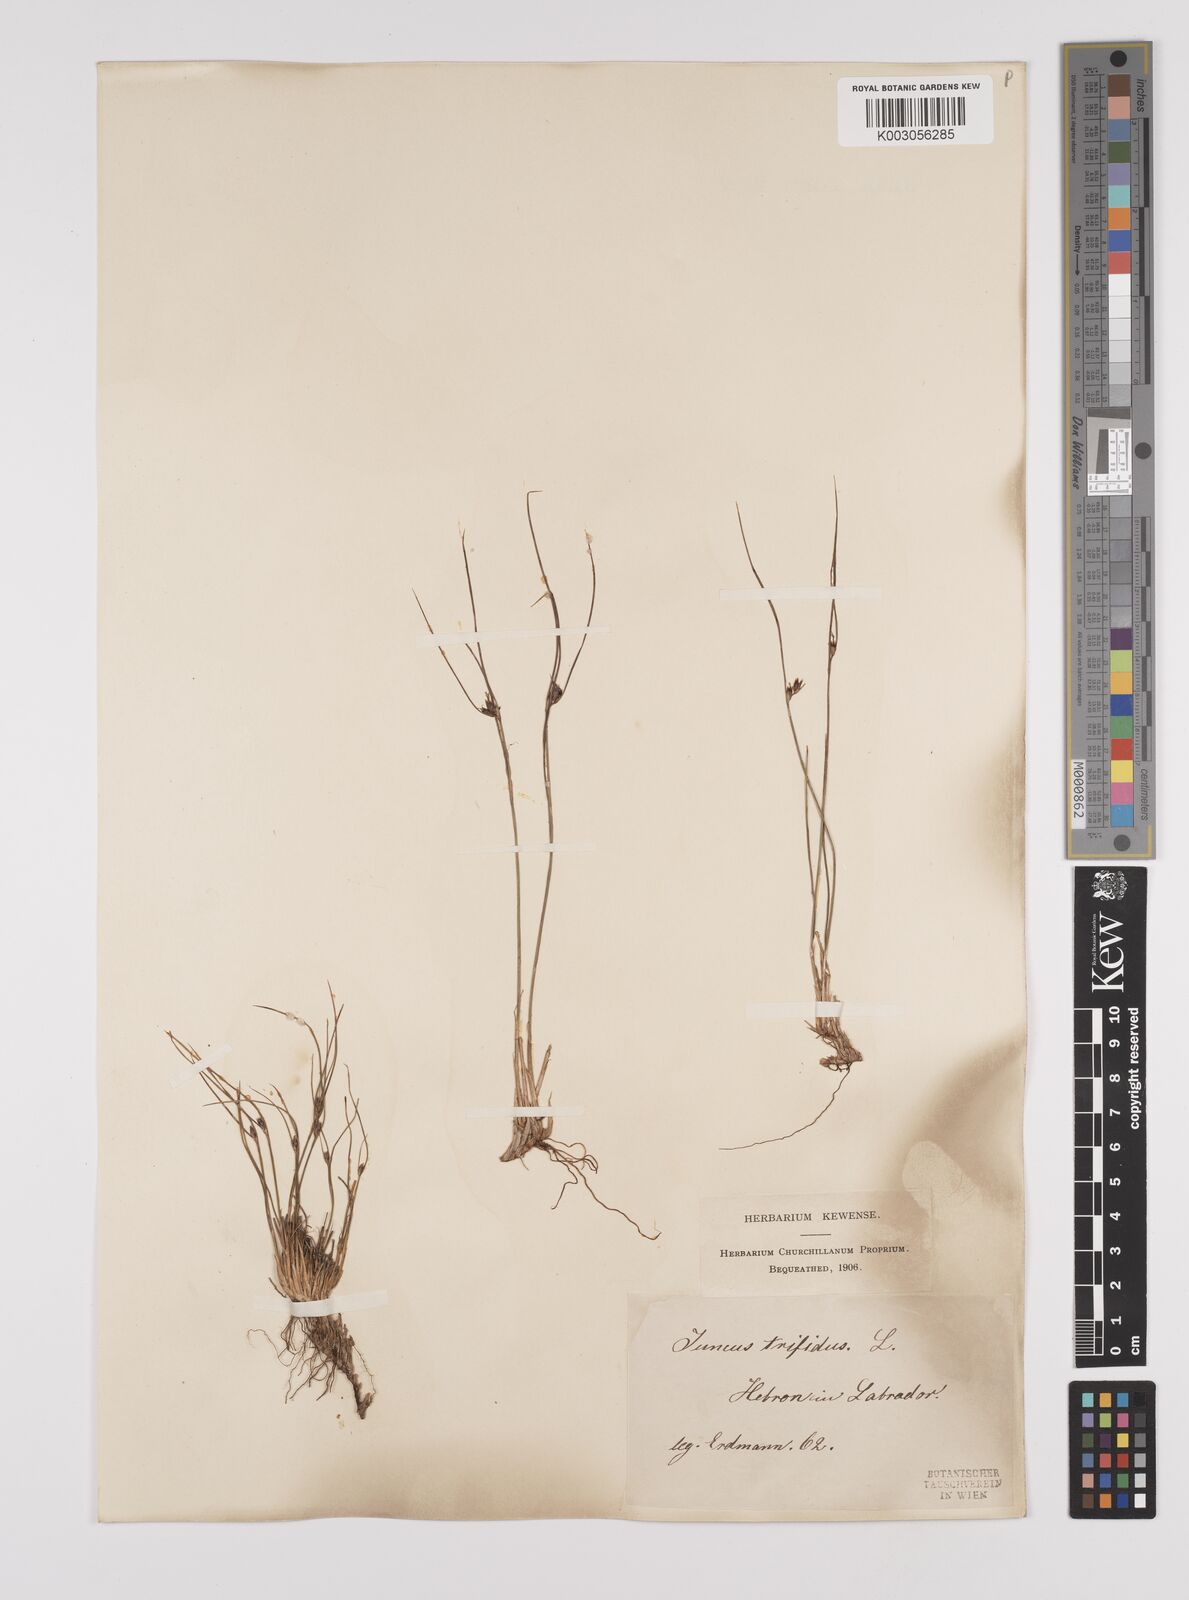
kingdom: Plantae
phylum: Tracheophyta
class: Liliopsida
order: Poales
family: Juncaceae
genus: Oreojuncus
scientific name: Oreojuncus trifidus
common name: Highland rush
